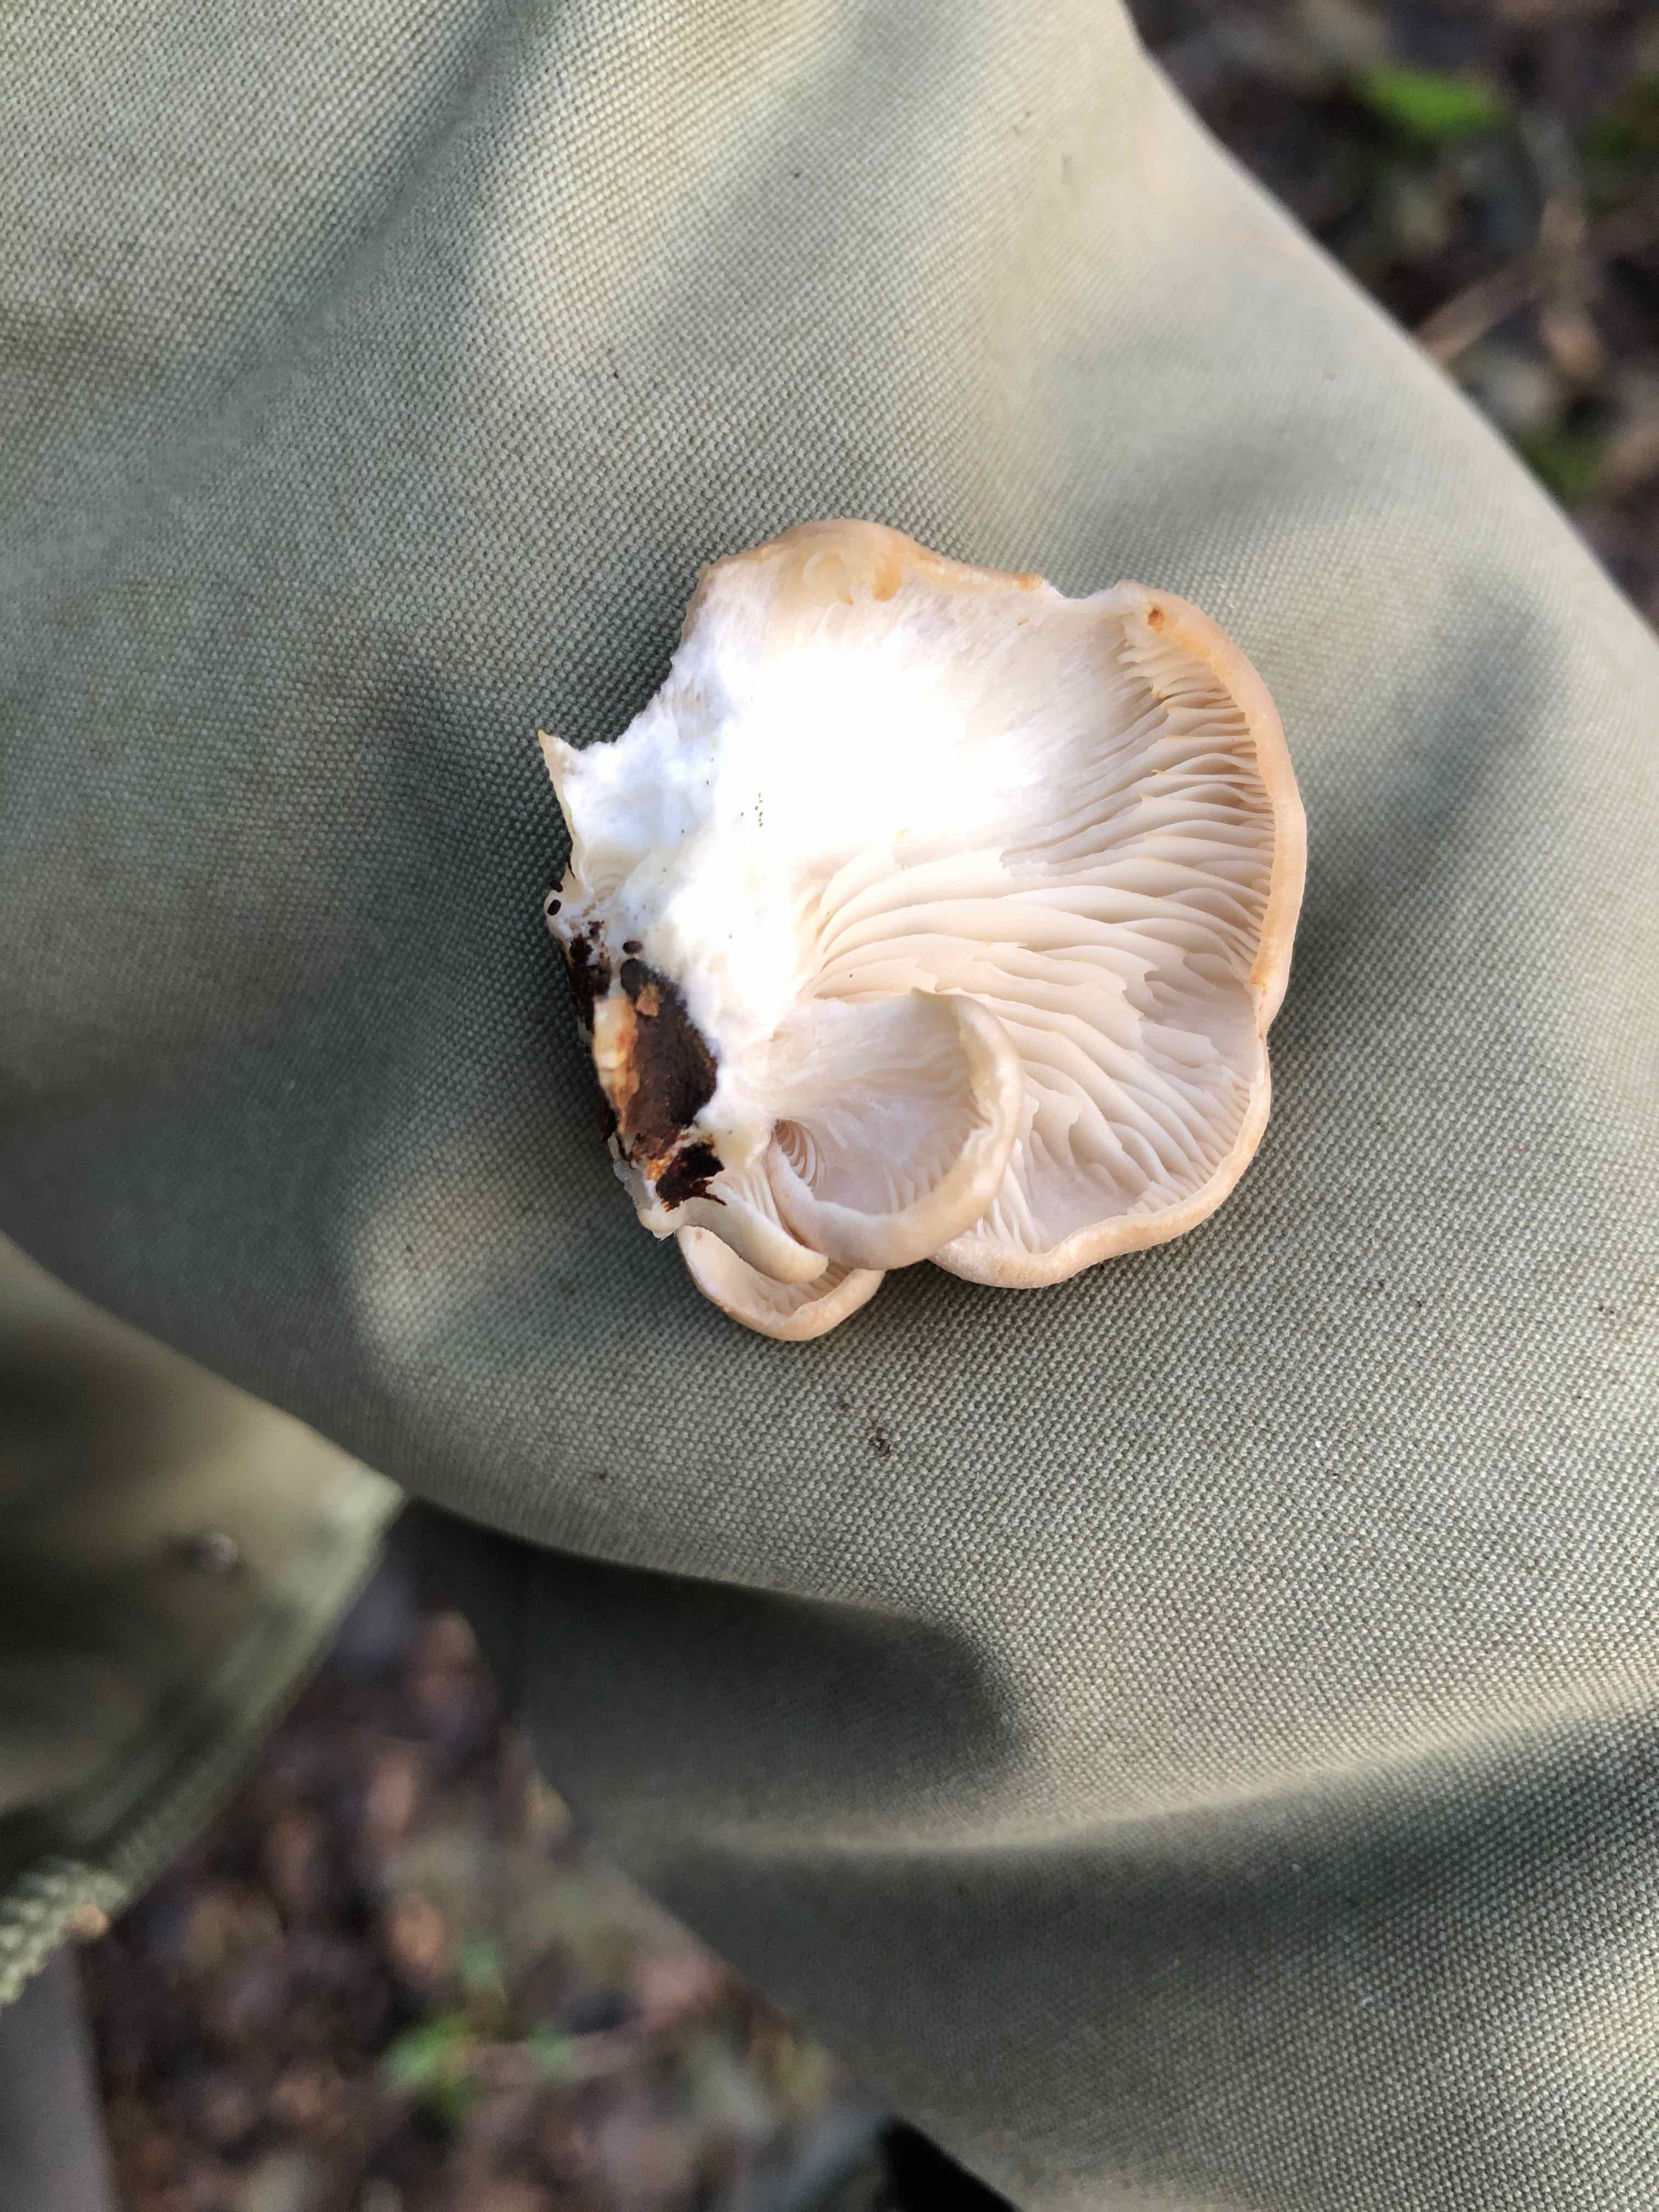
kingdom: Fungi
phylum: Basidiomycota
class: Agaricomycetes
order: Agaricales
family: Pleurotaceae
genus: Pleurotus
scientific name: Pleurotus ostreatus
